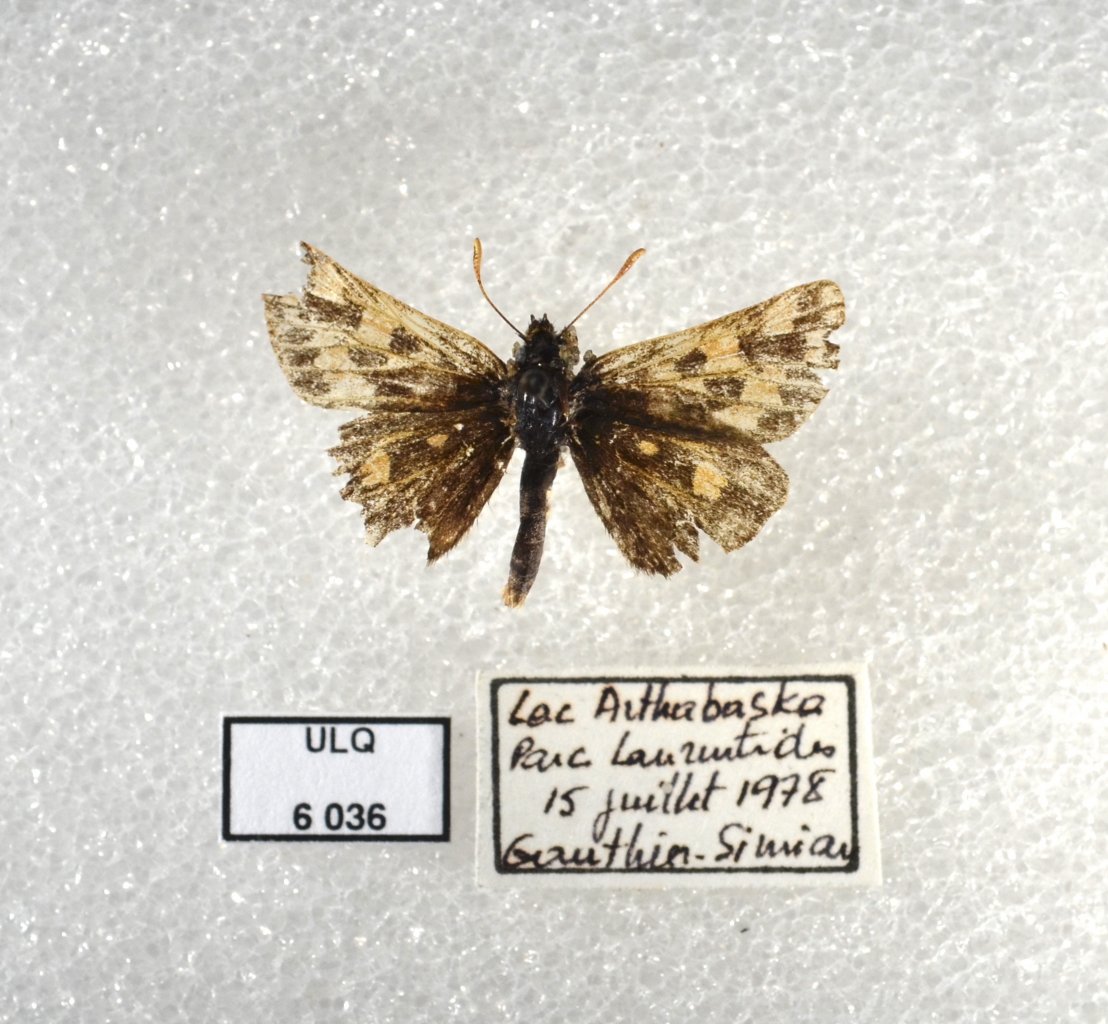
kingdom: Animalia
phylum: Arthropoda
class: Insecta
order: Lepidoptera
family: Hesperiidae
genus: Carterocephalus
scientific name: Carterocephalus palaemon
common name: Chequered Skipper
